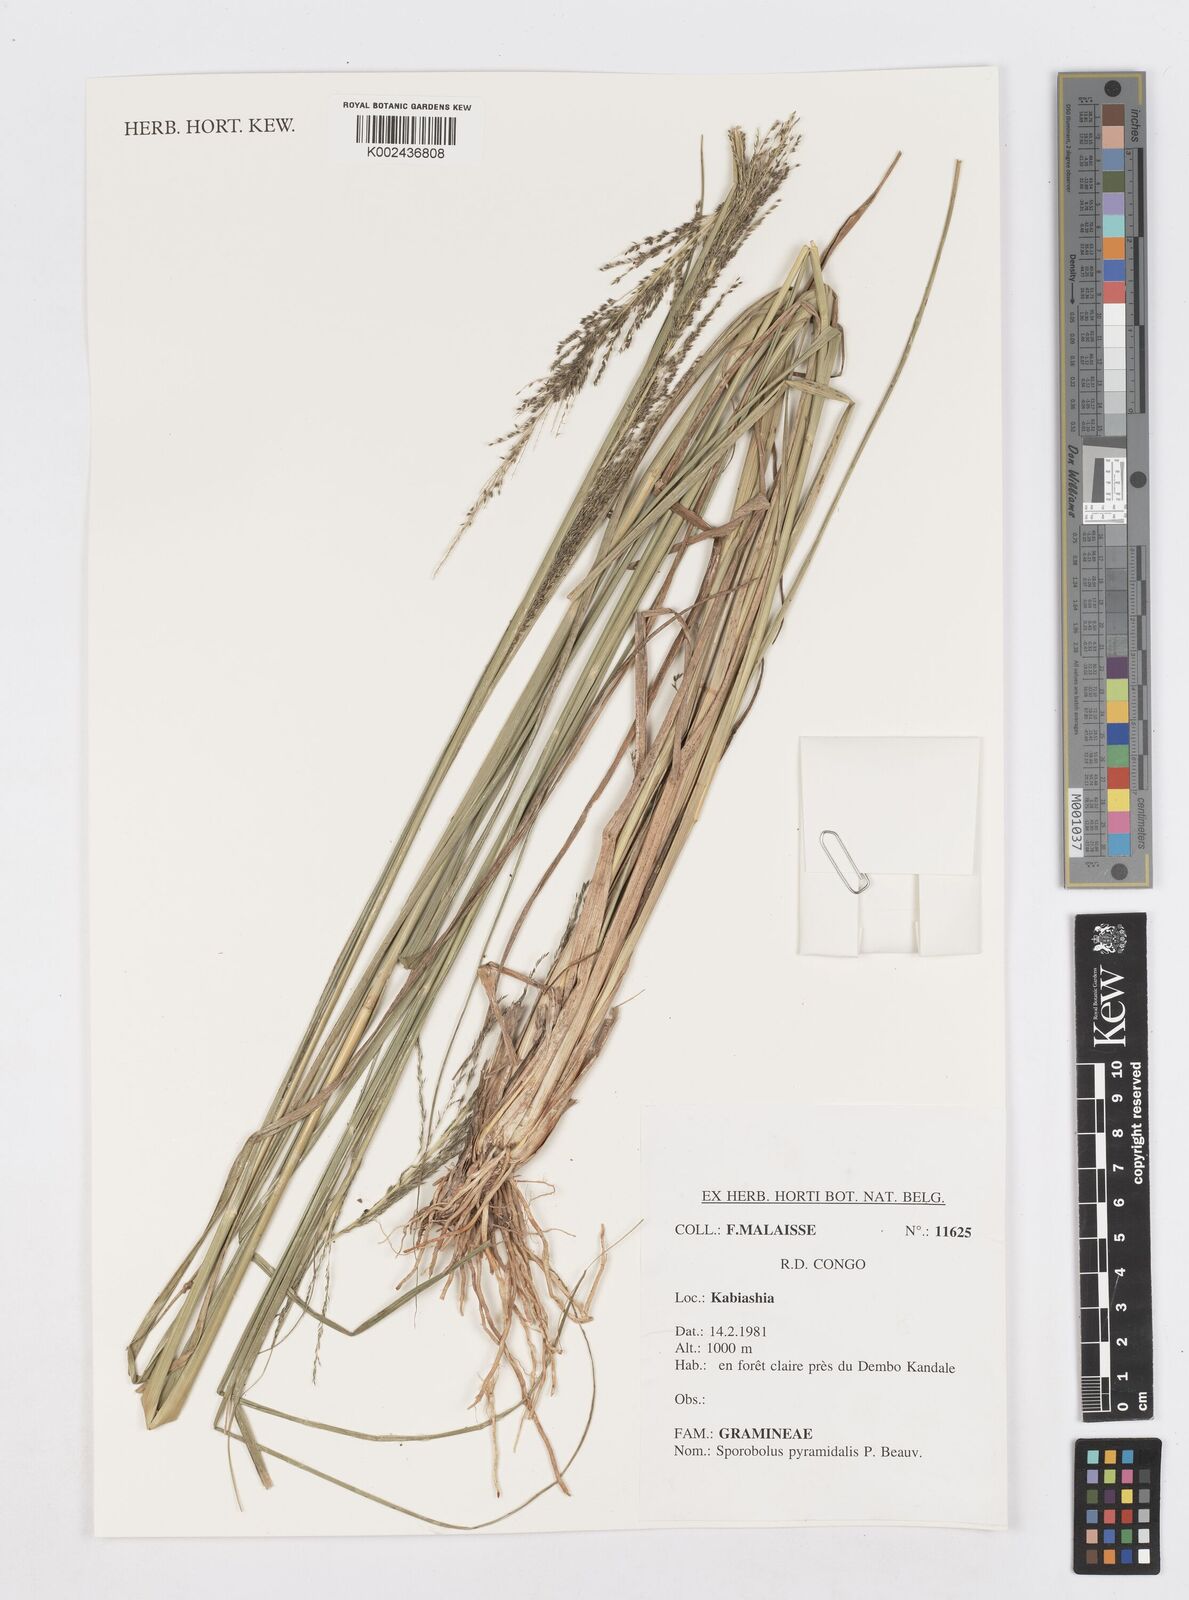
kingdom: Plantae
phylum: Tracheophyta
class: Liliopsida
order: Poales
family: Poaceae
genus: Sporobolus
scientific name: Sporobolus pyramidalis
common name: West indian dropseed
